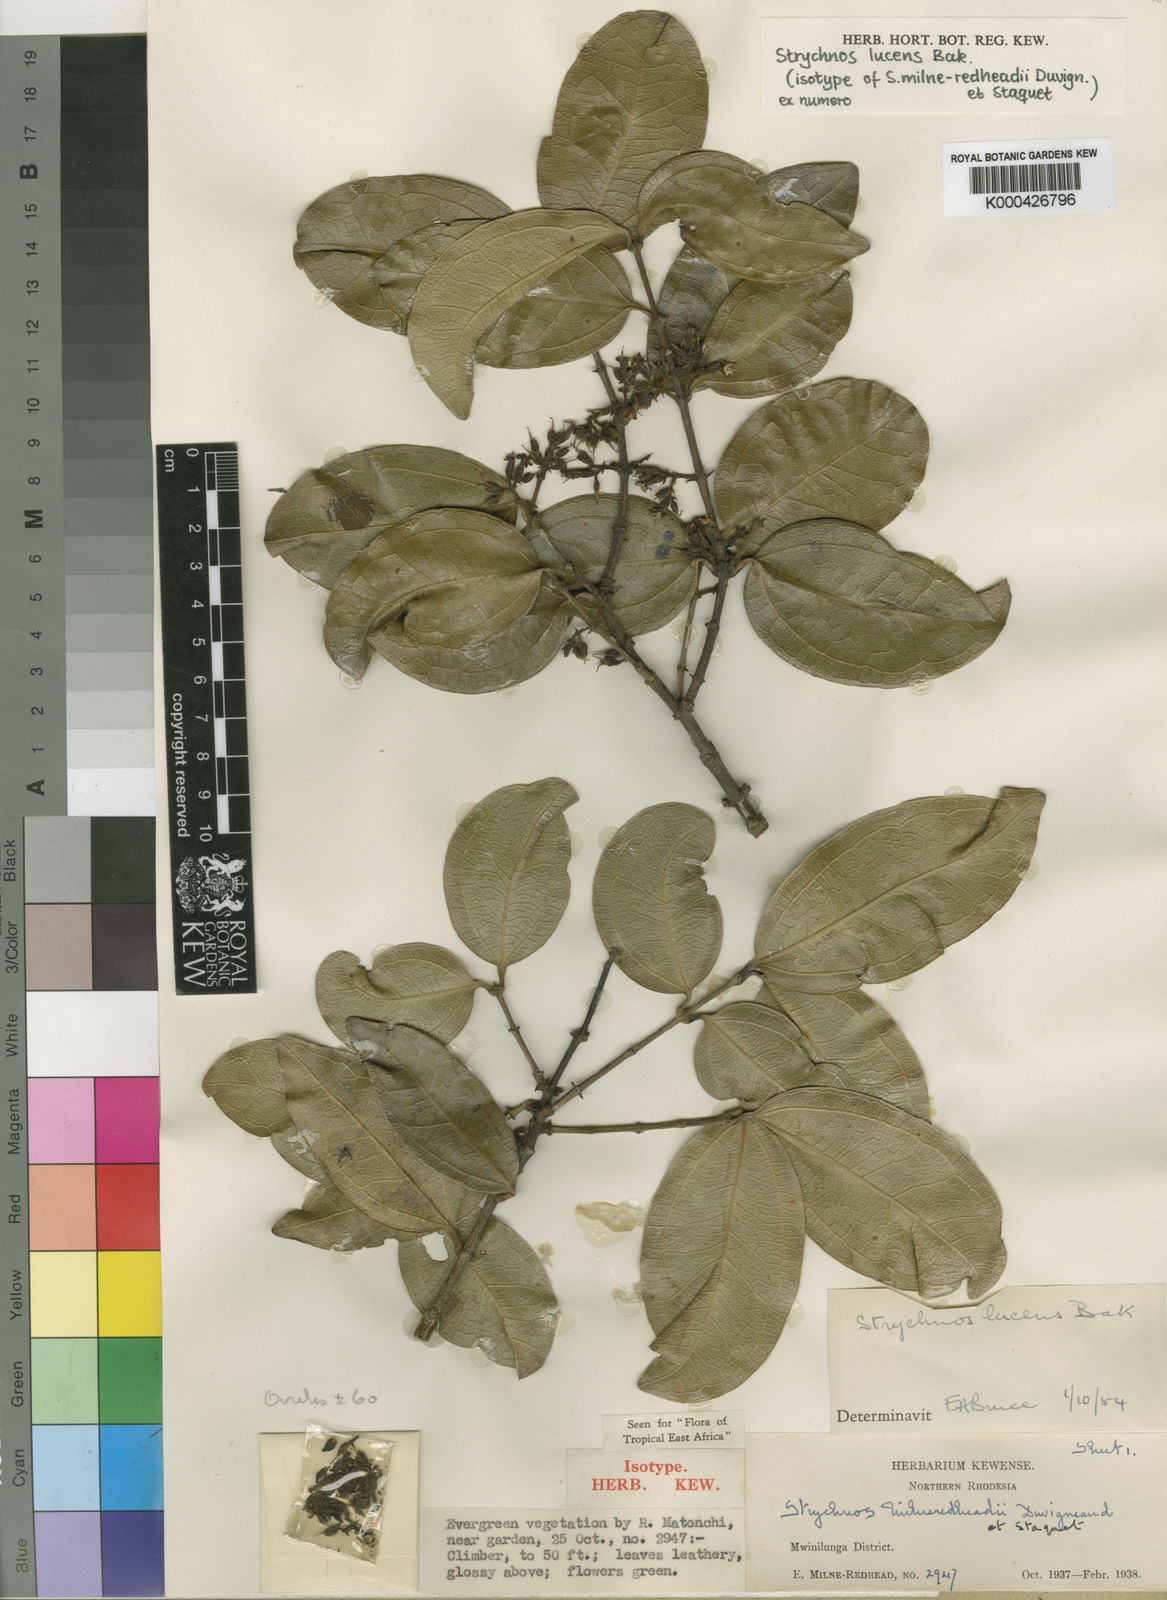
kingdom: Plantae
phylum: Tracheophyta
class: Magnoliopsida
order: Gentianales
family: Loganiaceae
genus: Strychnos
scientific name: Strychnos lucens
